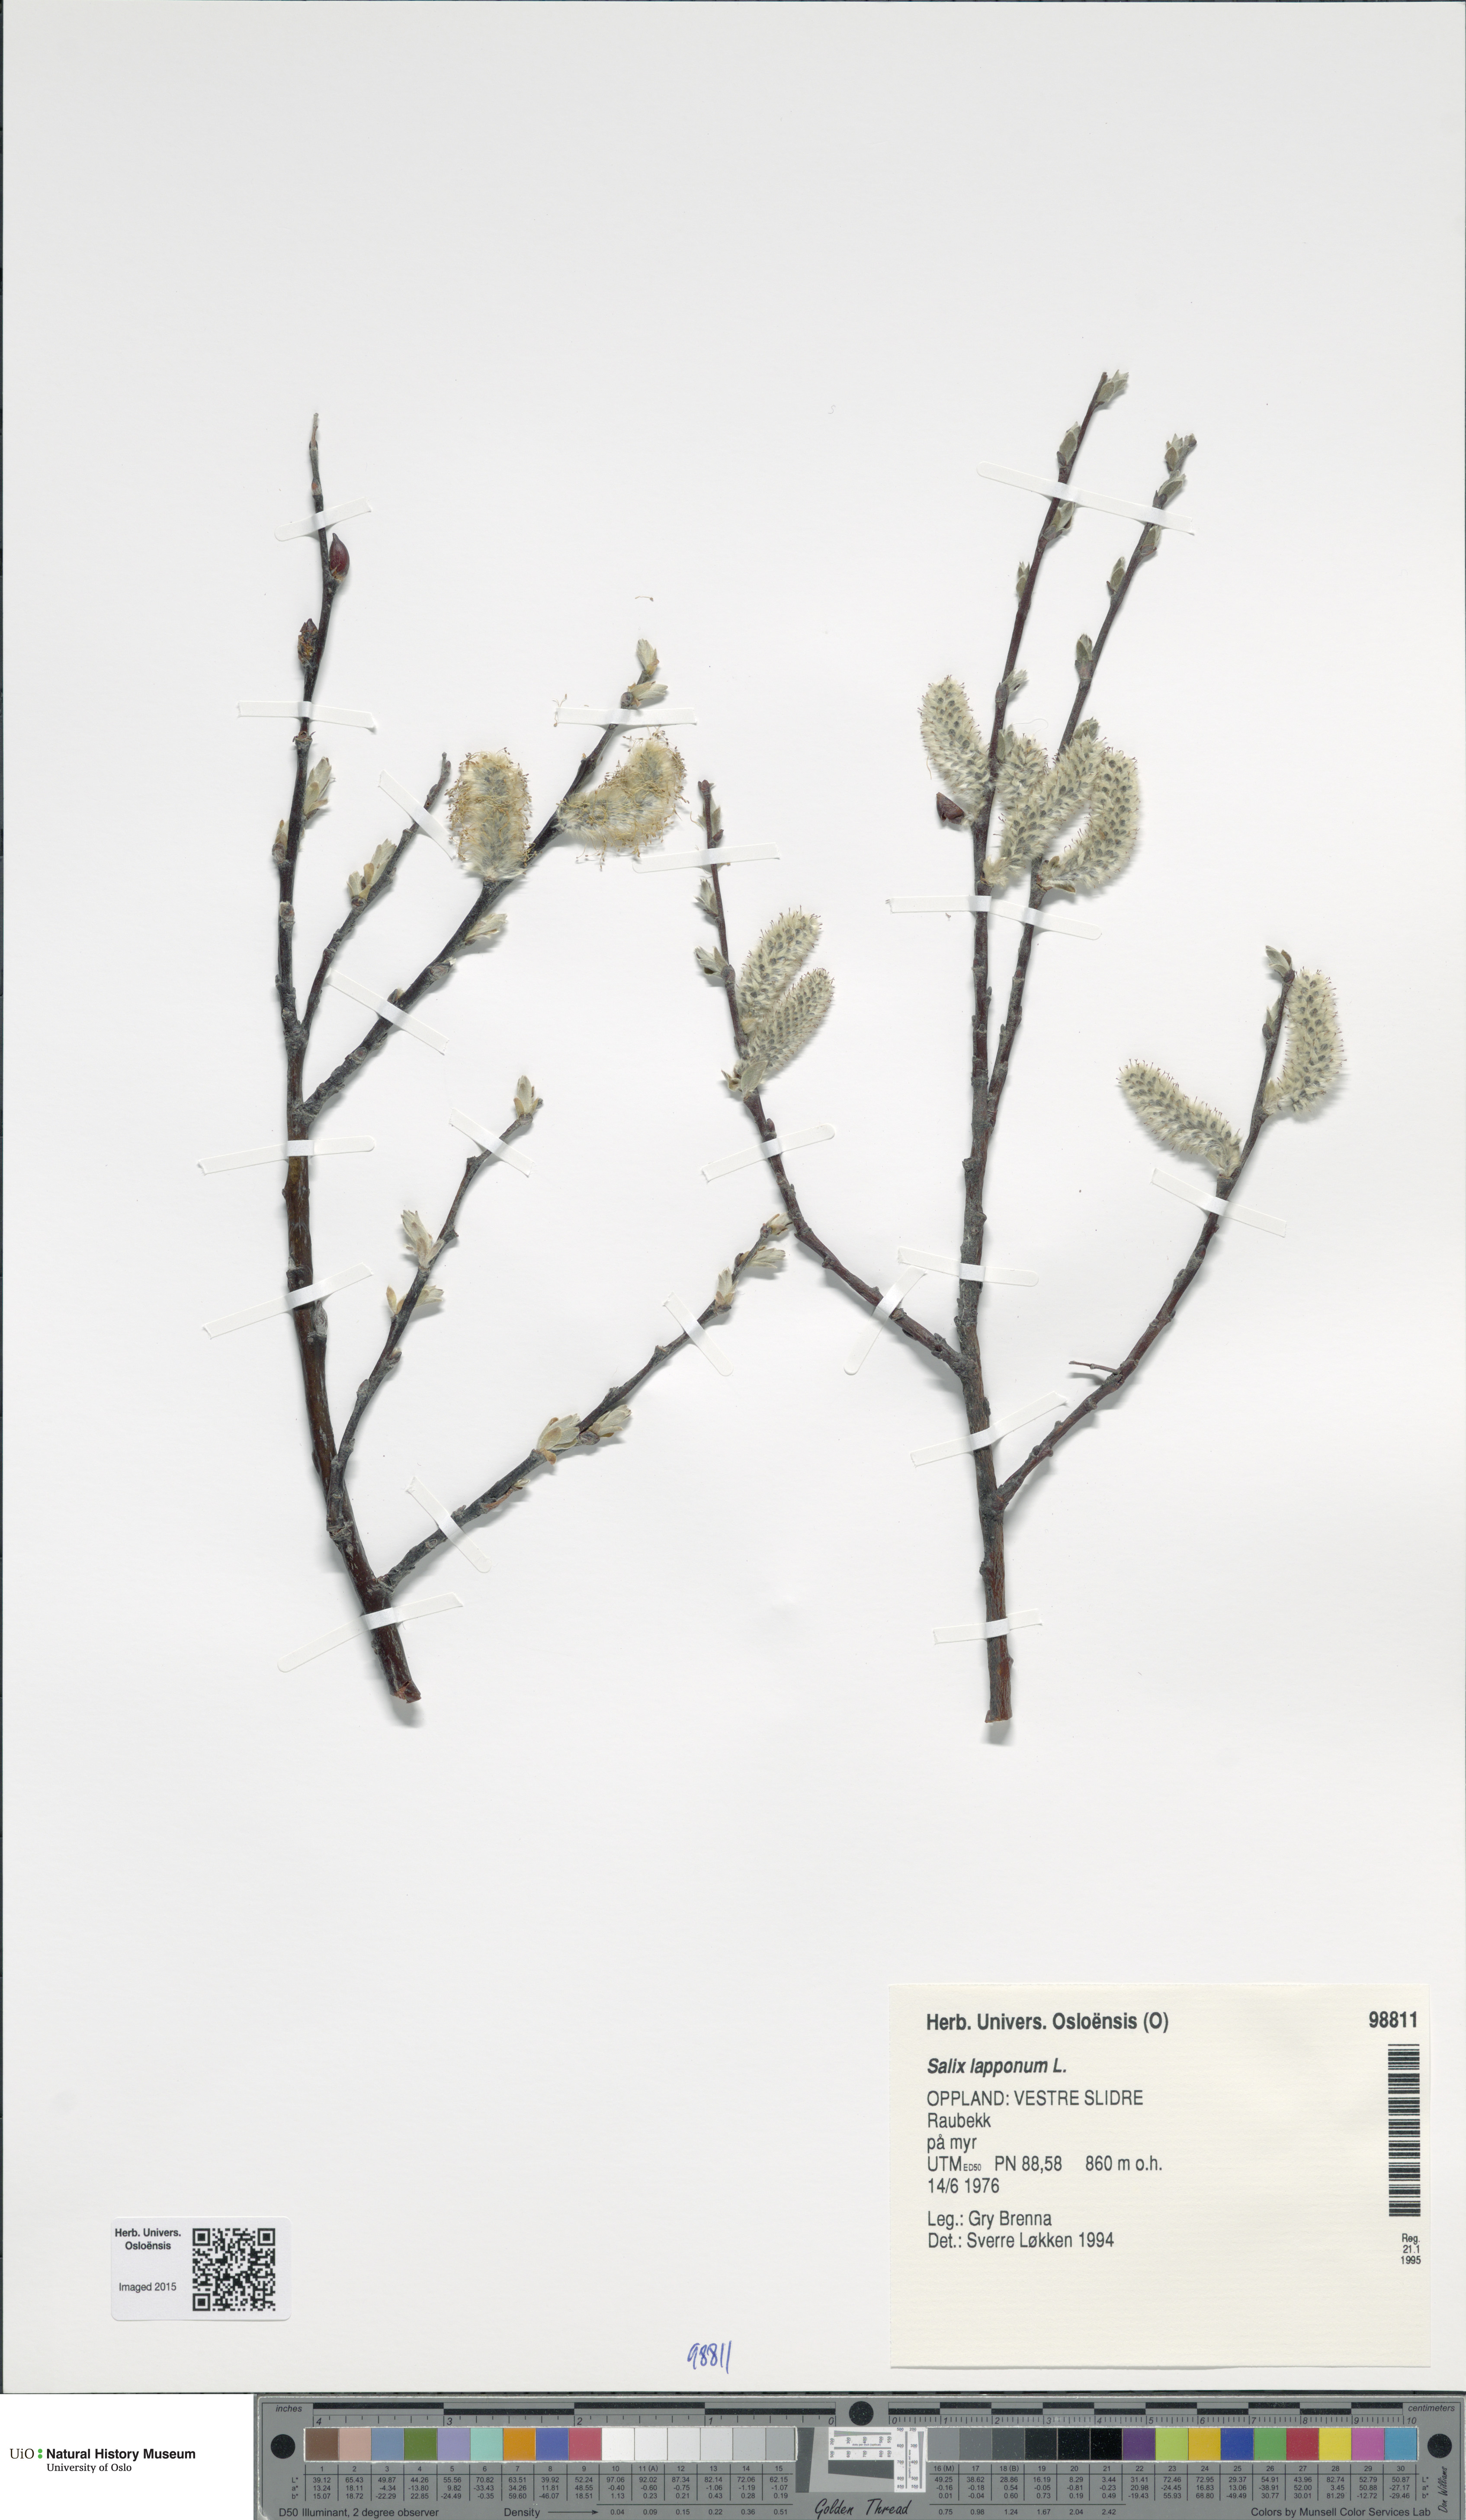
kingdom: Plantae
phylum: Tracheophyta
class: Magnoliopsida
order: Malpighiales
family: Salicaceae
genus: Salix
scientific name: Salix lapponum
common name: Downy willow
